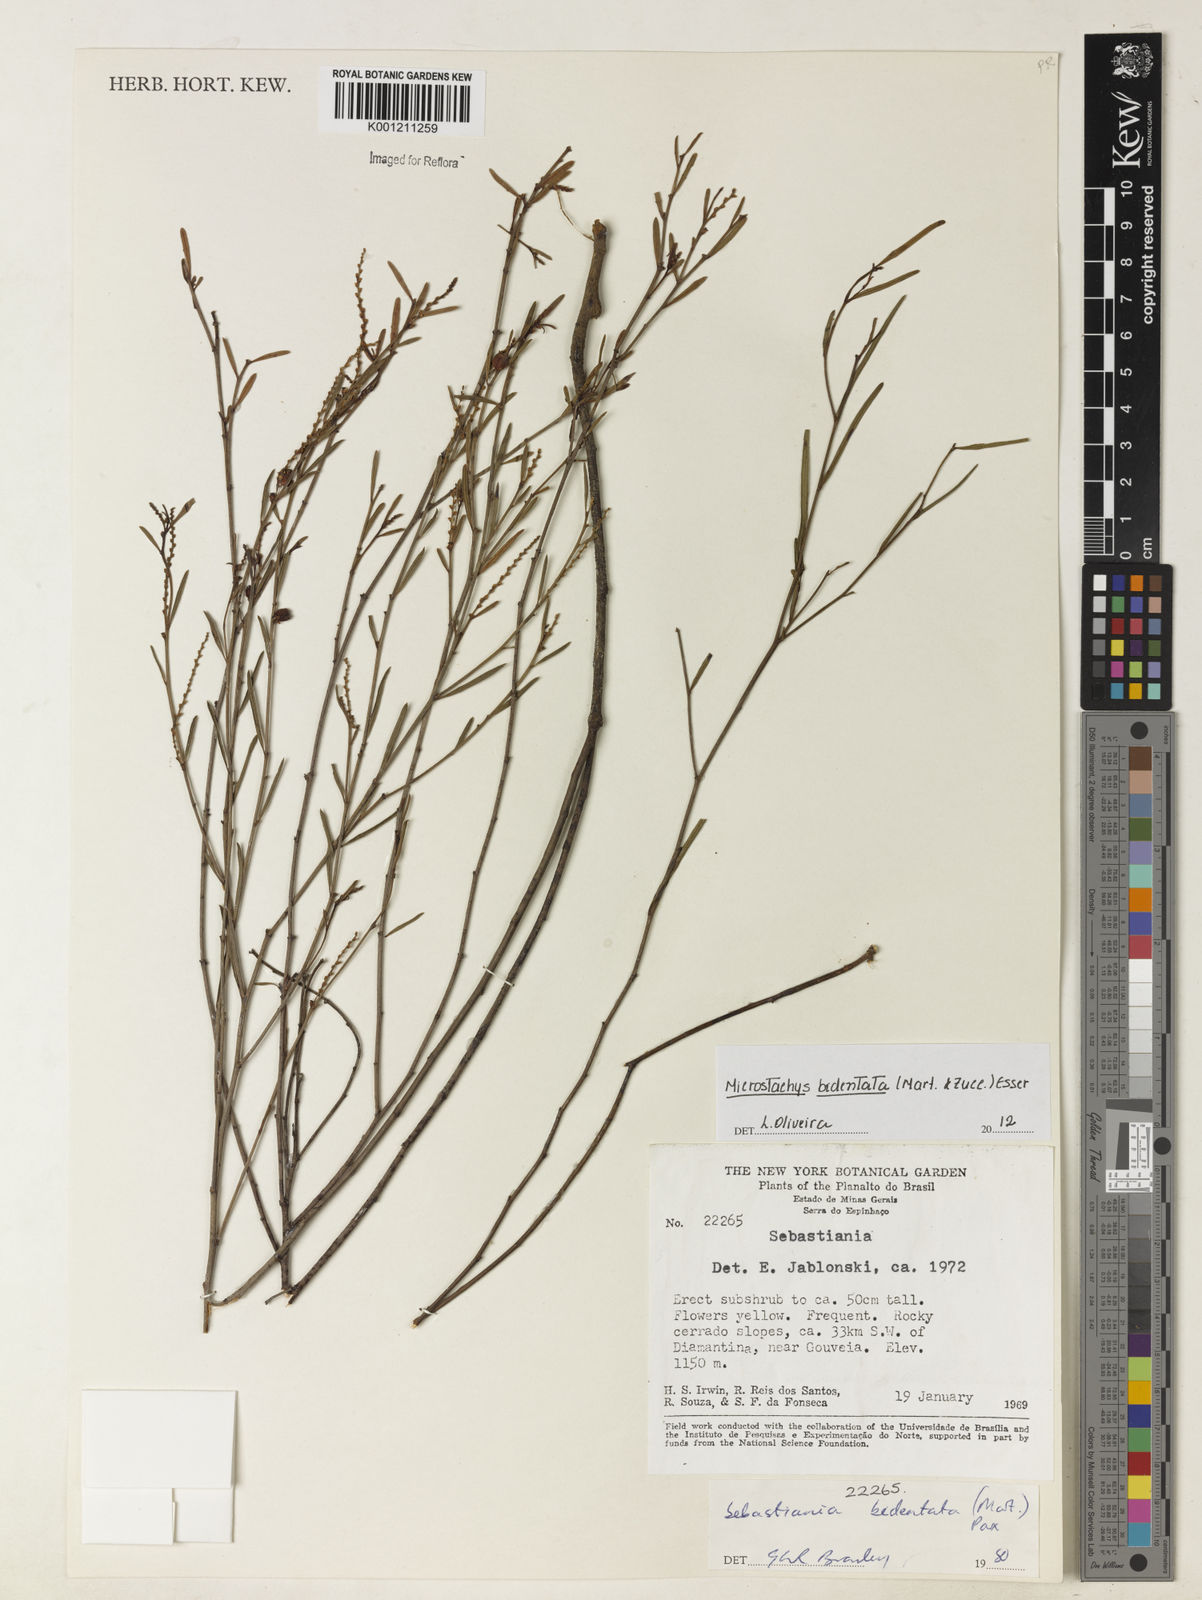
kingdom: Plantae
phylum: Tracheophyta
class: Magnoliopsida
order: Malpighiales
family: Euphorbiaceae
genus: Microstachys
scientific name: Microstachys bidentata
